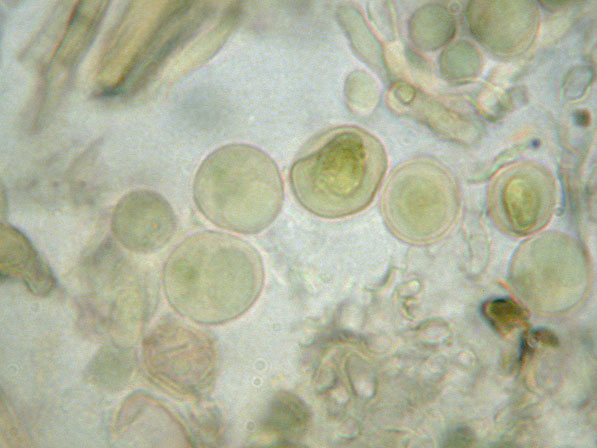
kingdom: Fungi
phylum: Ascomycota
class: Arthoniomycetes
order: Arthoniales
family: Arthoniaceae
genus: Arthonia
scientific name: Arthonia ligniaria
